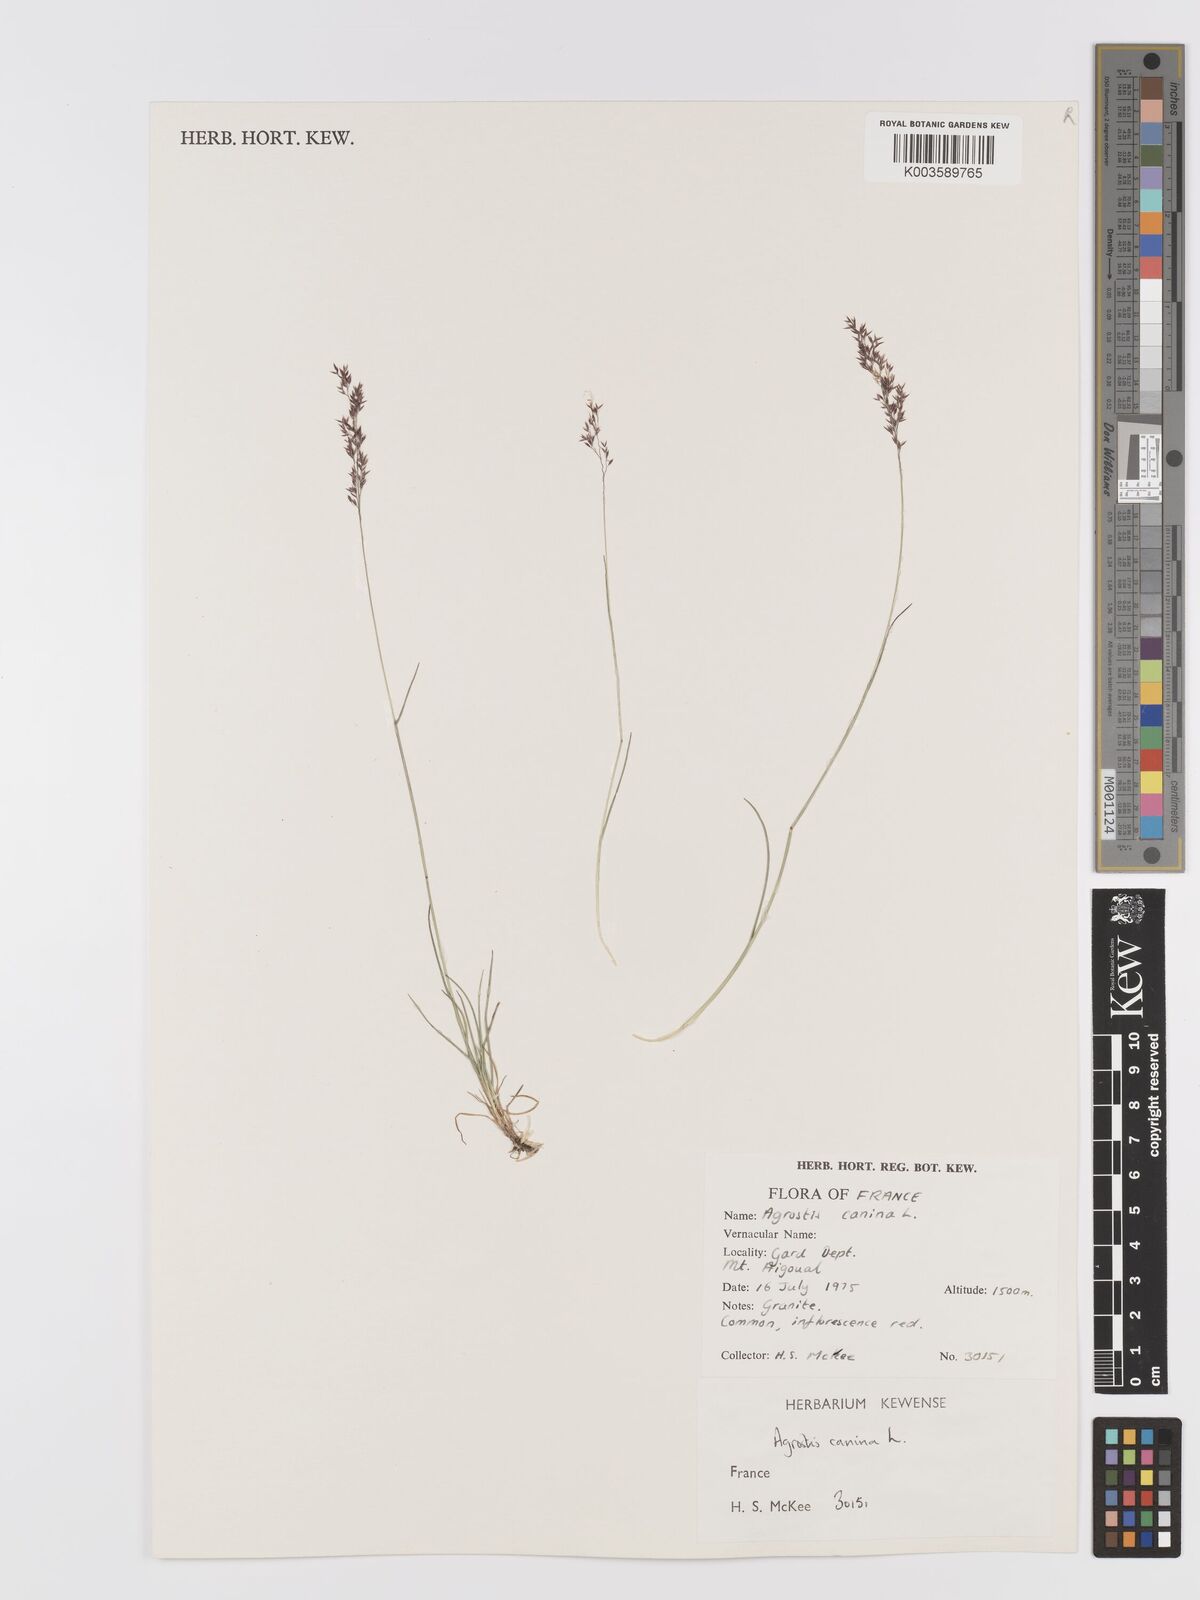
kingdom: Plantae
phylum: Tracheophyta
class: Liliopsida
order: Poales
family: Poaceae
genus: Agrostis
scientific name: Agrostis
